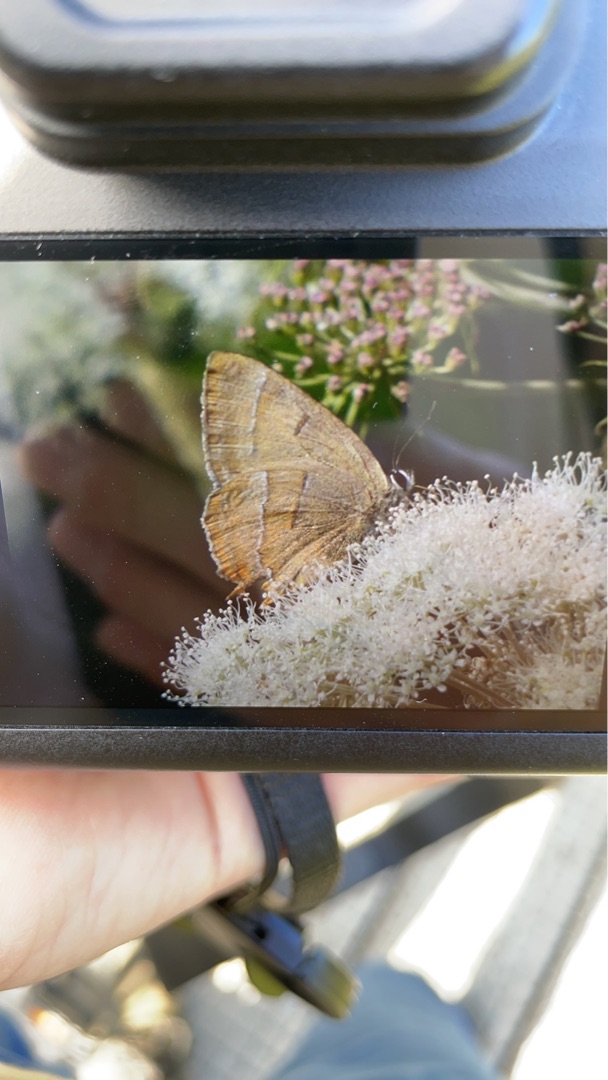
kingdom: Animalia
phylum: Arthropoda
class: Insecta
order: Lepidoptera
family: Lycaenidae
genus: Thecla
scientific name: Thecla betulae
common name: Guldhale
